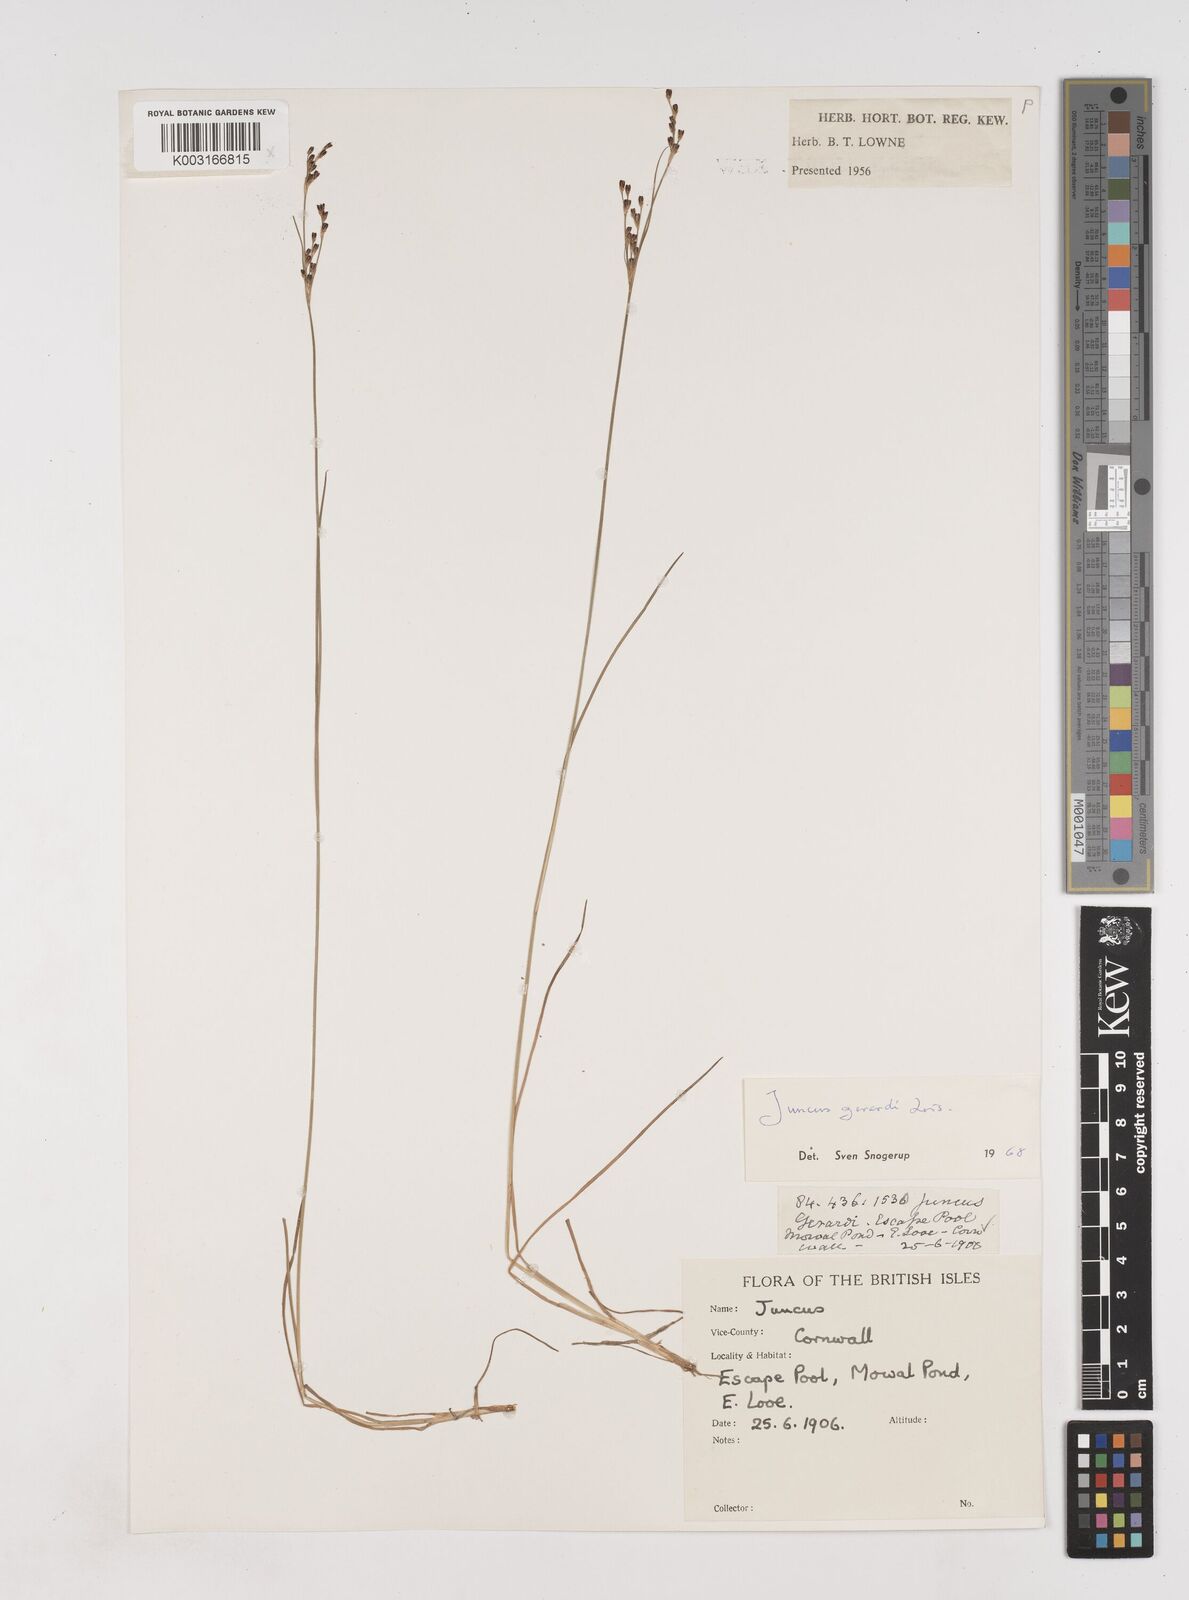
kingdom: Plantae
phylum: Tracheophyta
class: Liliopsida
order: Poales
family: Juncaceae
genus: Juncus
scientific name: Juncus gerardi
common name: Saltmarsh rush
